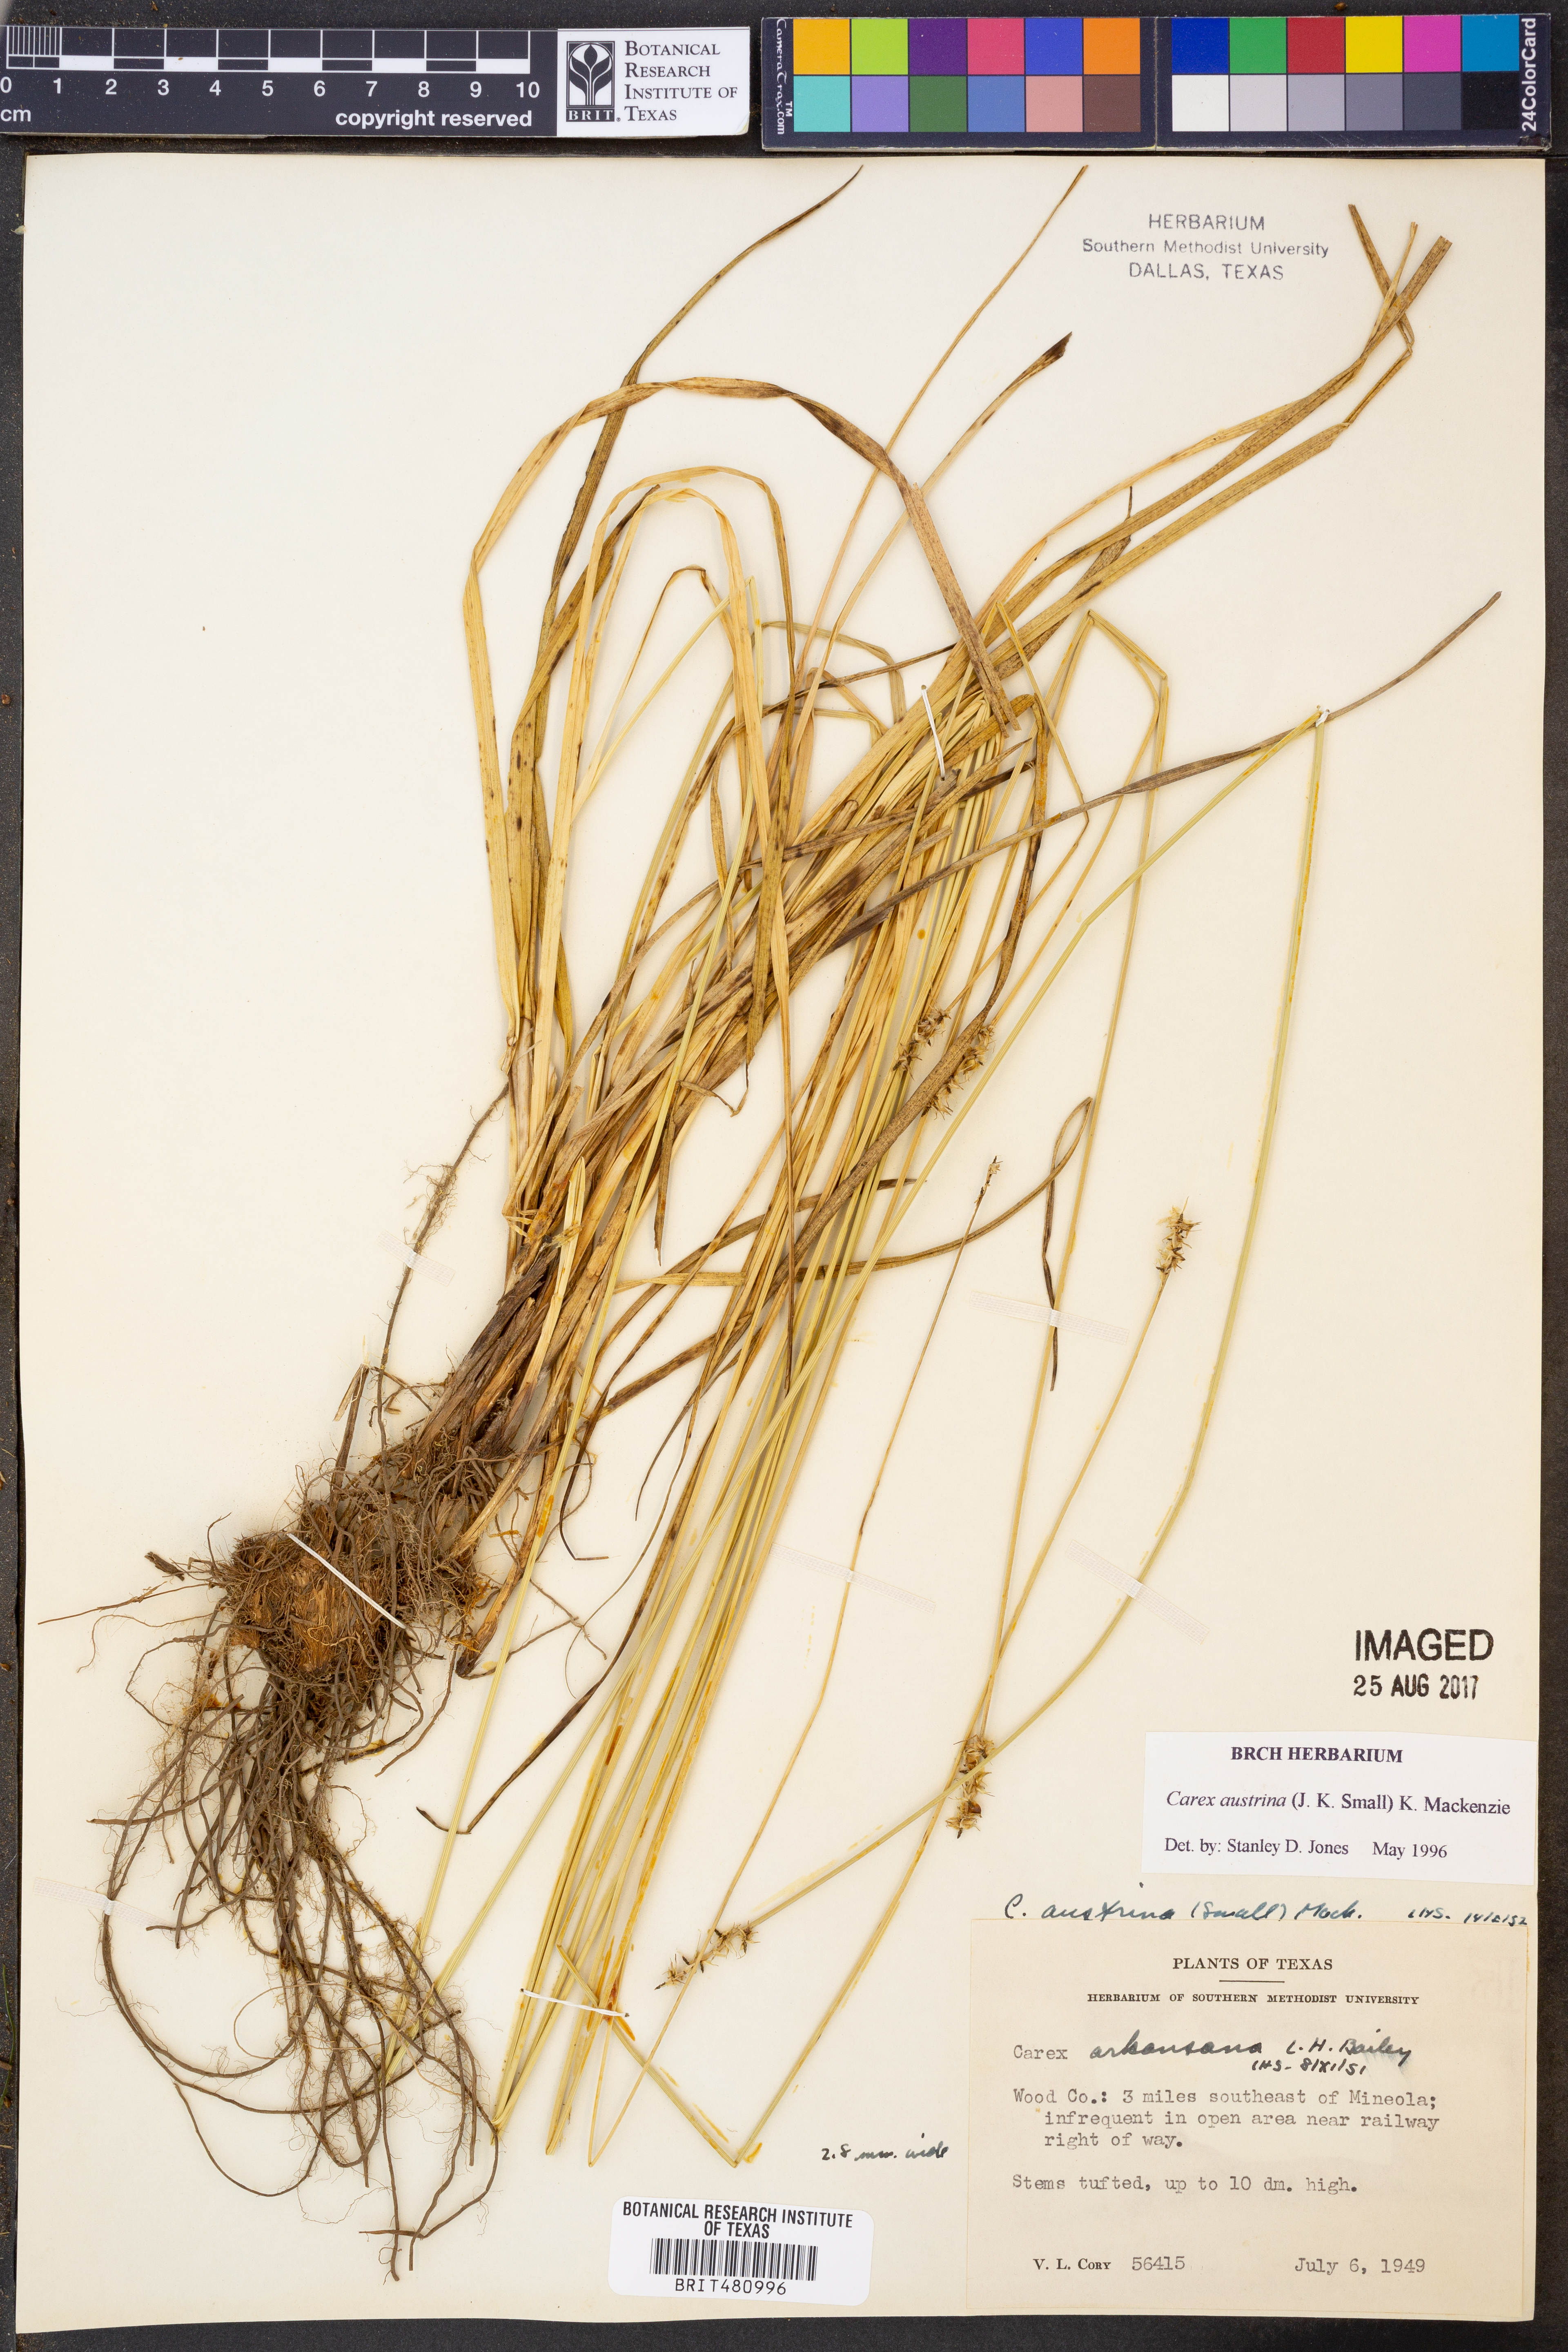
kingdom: Plantae
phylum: Tracheophyta
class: Liliopsida
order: Poales
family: Cyperaceae
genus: Carex
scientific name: Carex austrina
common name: Southern sedge
